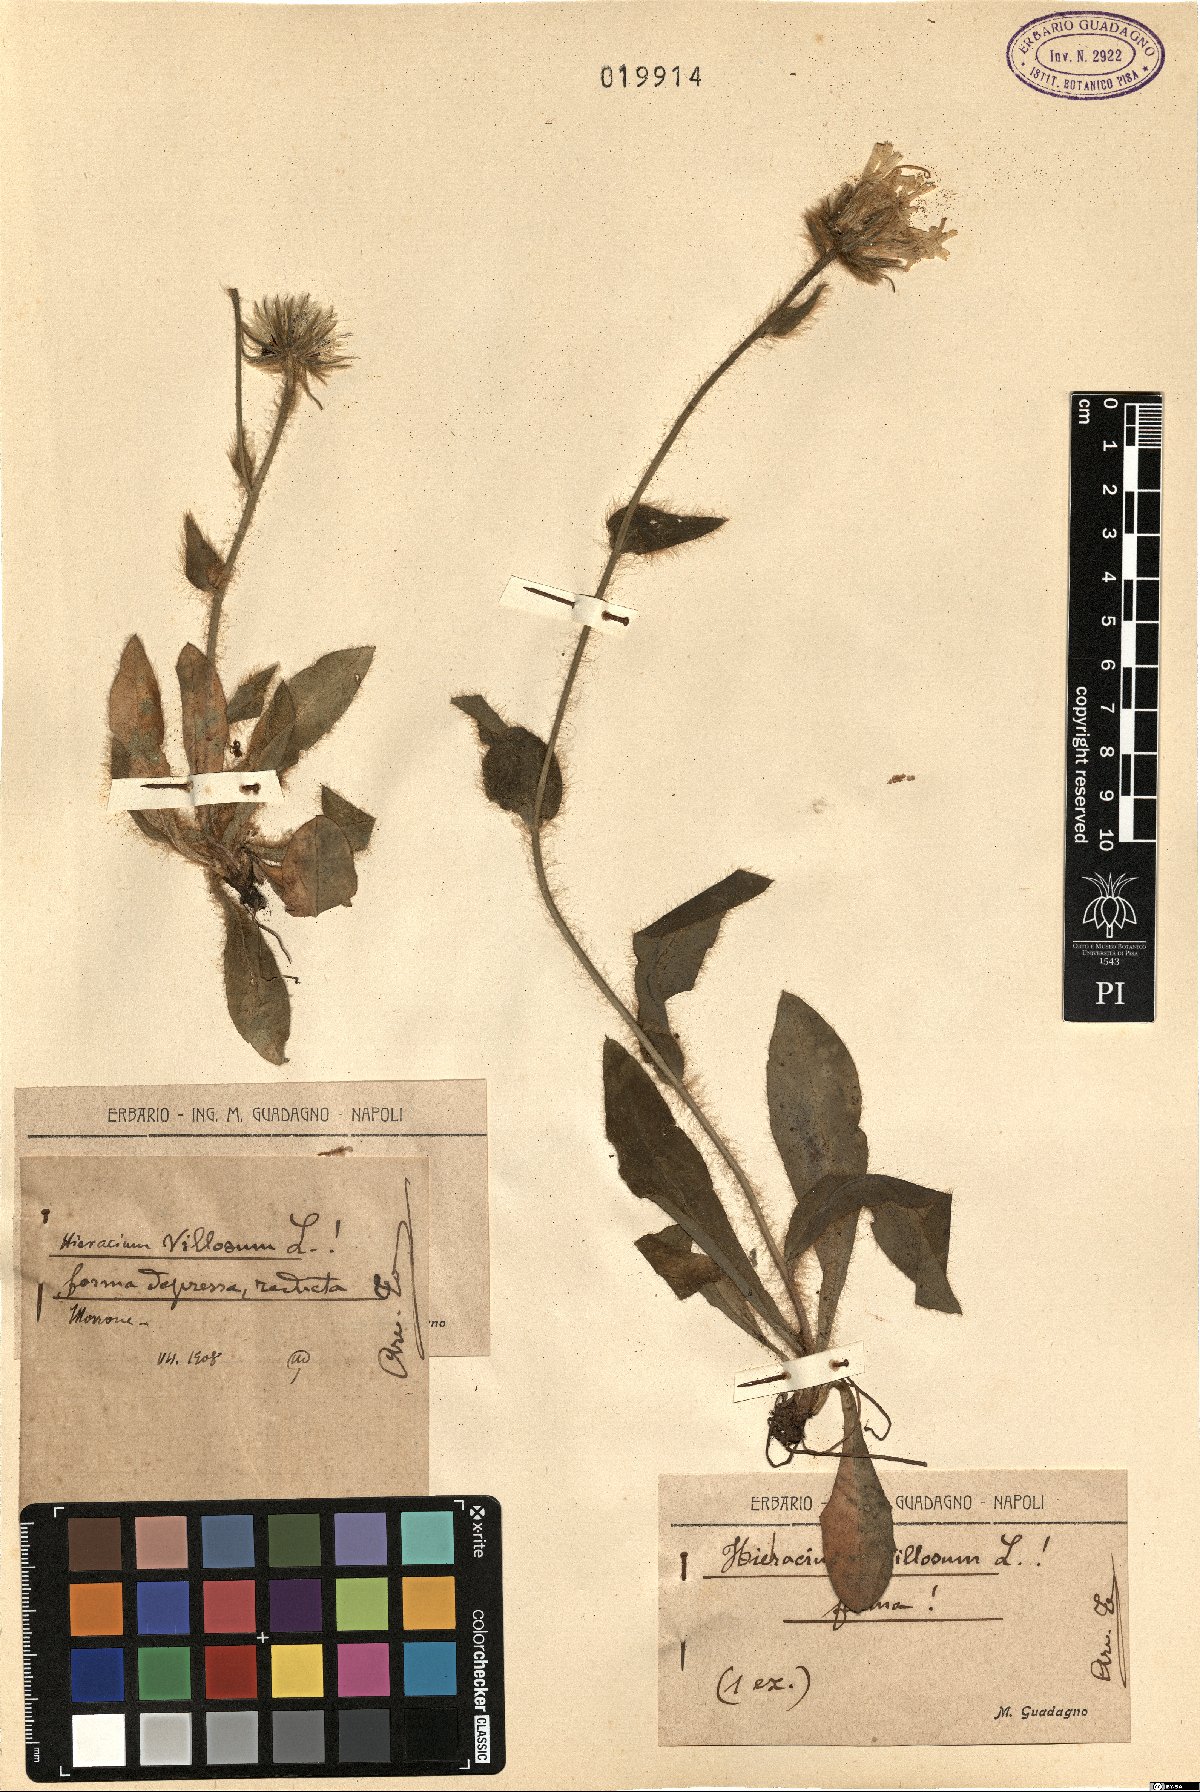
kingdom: Plantae
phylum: Tracheophyta
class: Magnoliopsida
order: Asterales
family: Asteraceae
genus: Hieracium
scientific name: Hieracium villosum
